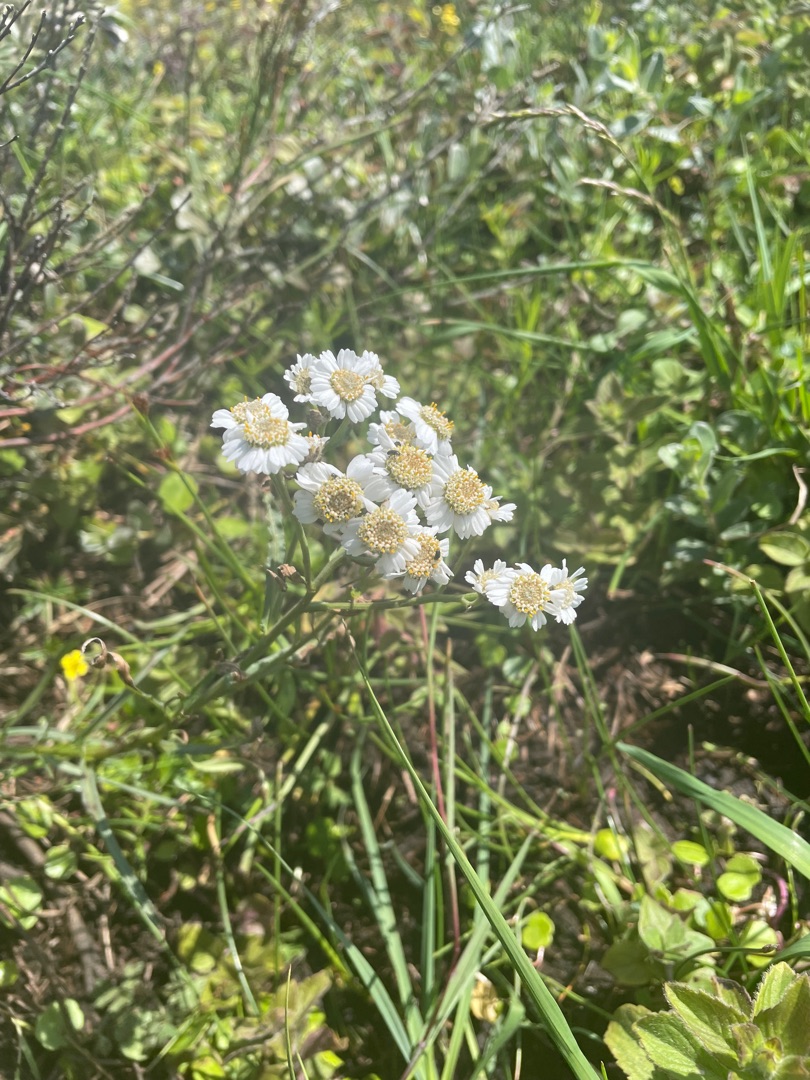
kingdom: Plantae
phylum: Tracheophyta
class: Magnoliopsida
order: Asterales
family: Asteraceae
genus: Achillea
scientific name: Achillea ptarmica
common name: Nyse-røllike
